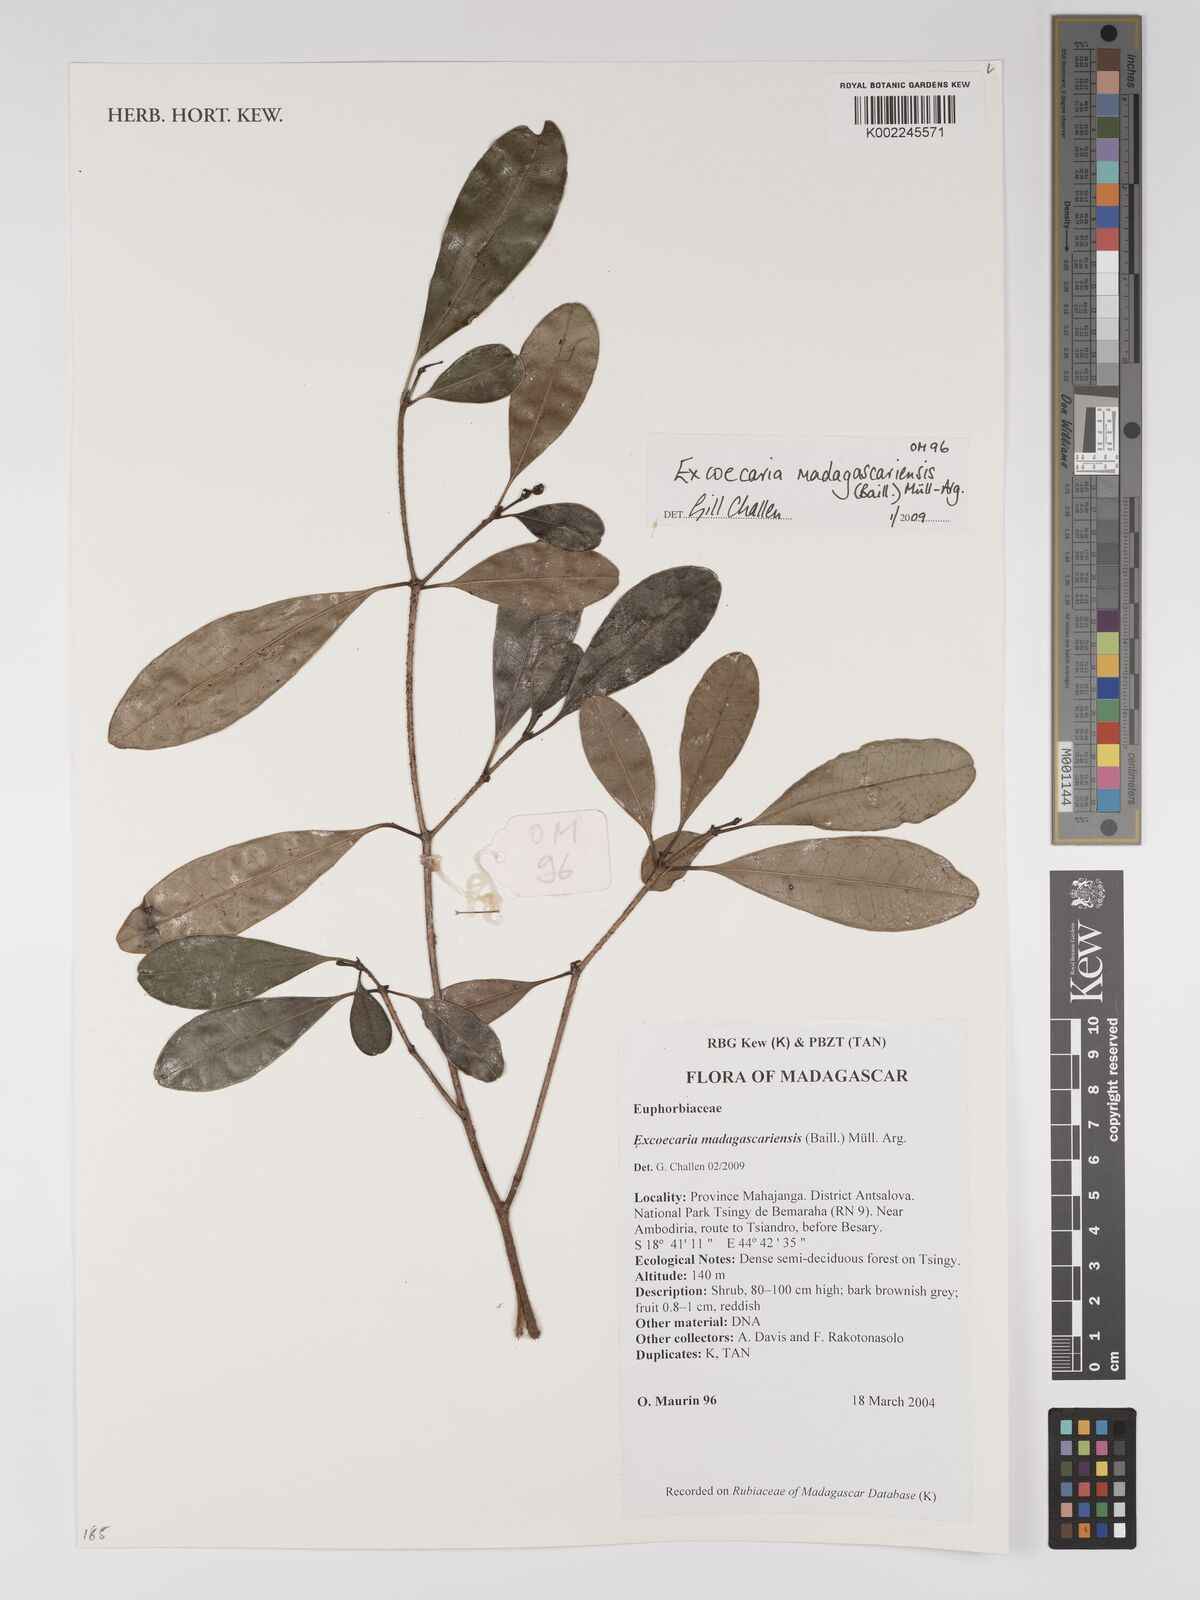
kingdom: Plantae
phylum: Tracheophyta
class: Magnoliopsida
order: Malpighiales
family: Euphorbiaceae
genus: Excoecaria
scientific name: Excoecaria madagascariensis
